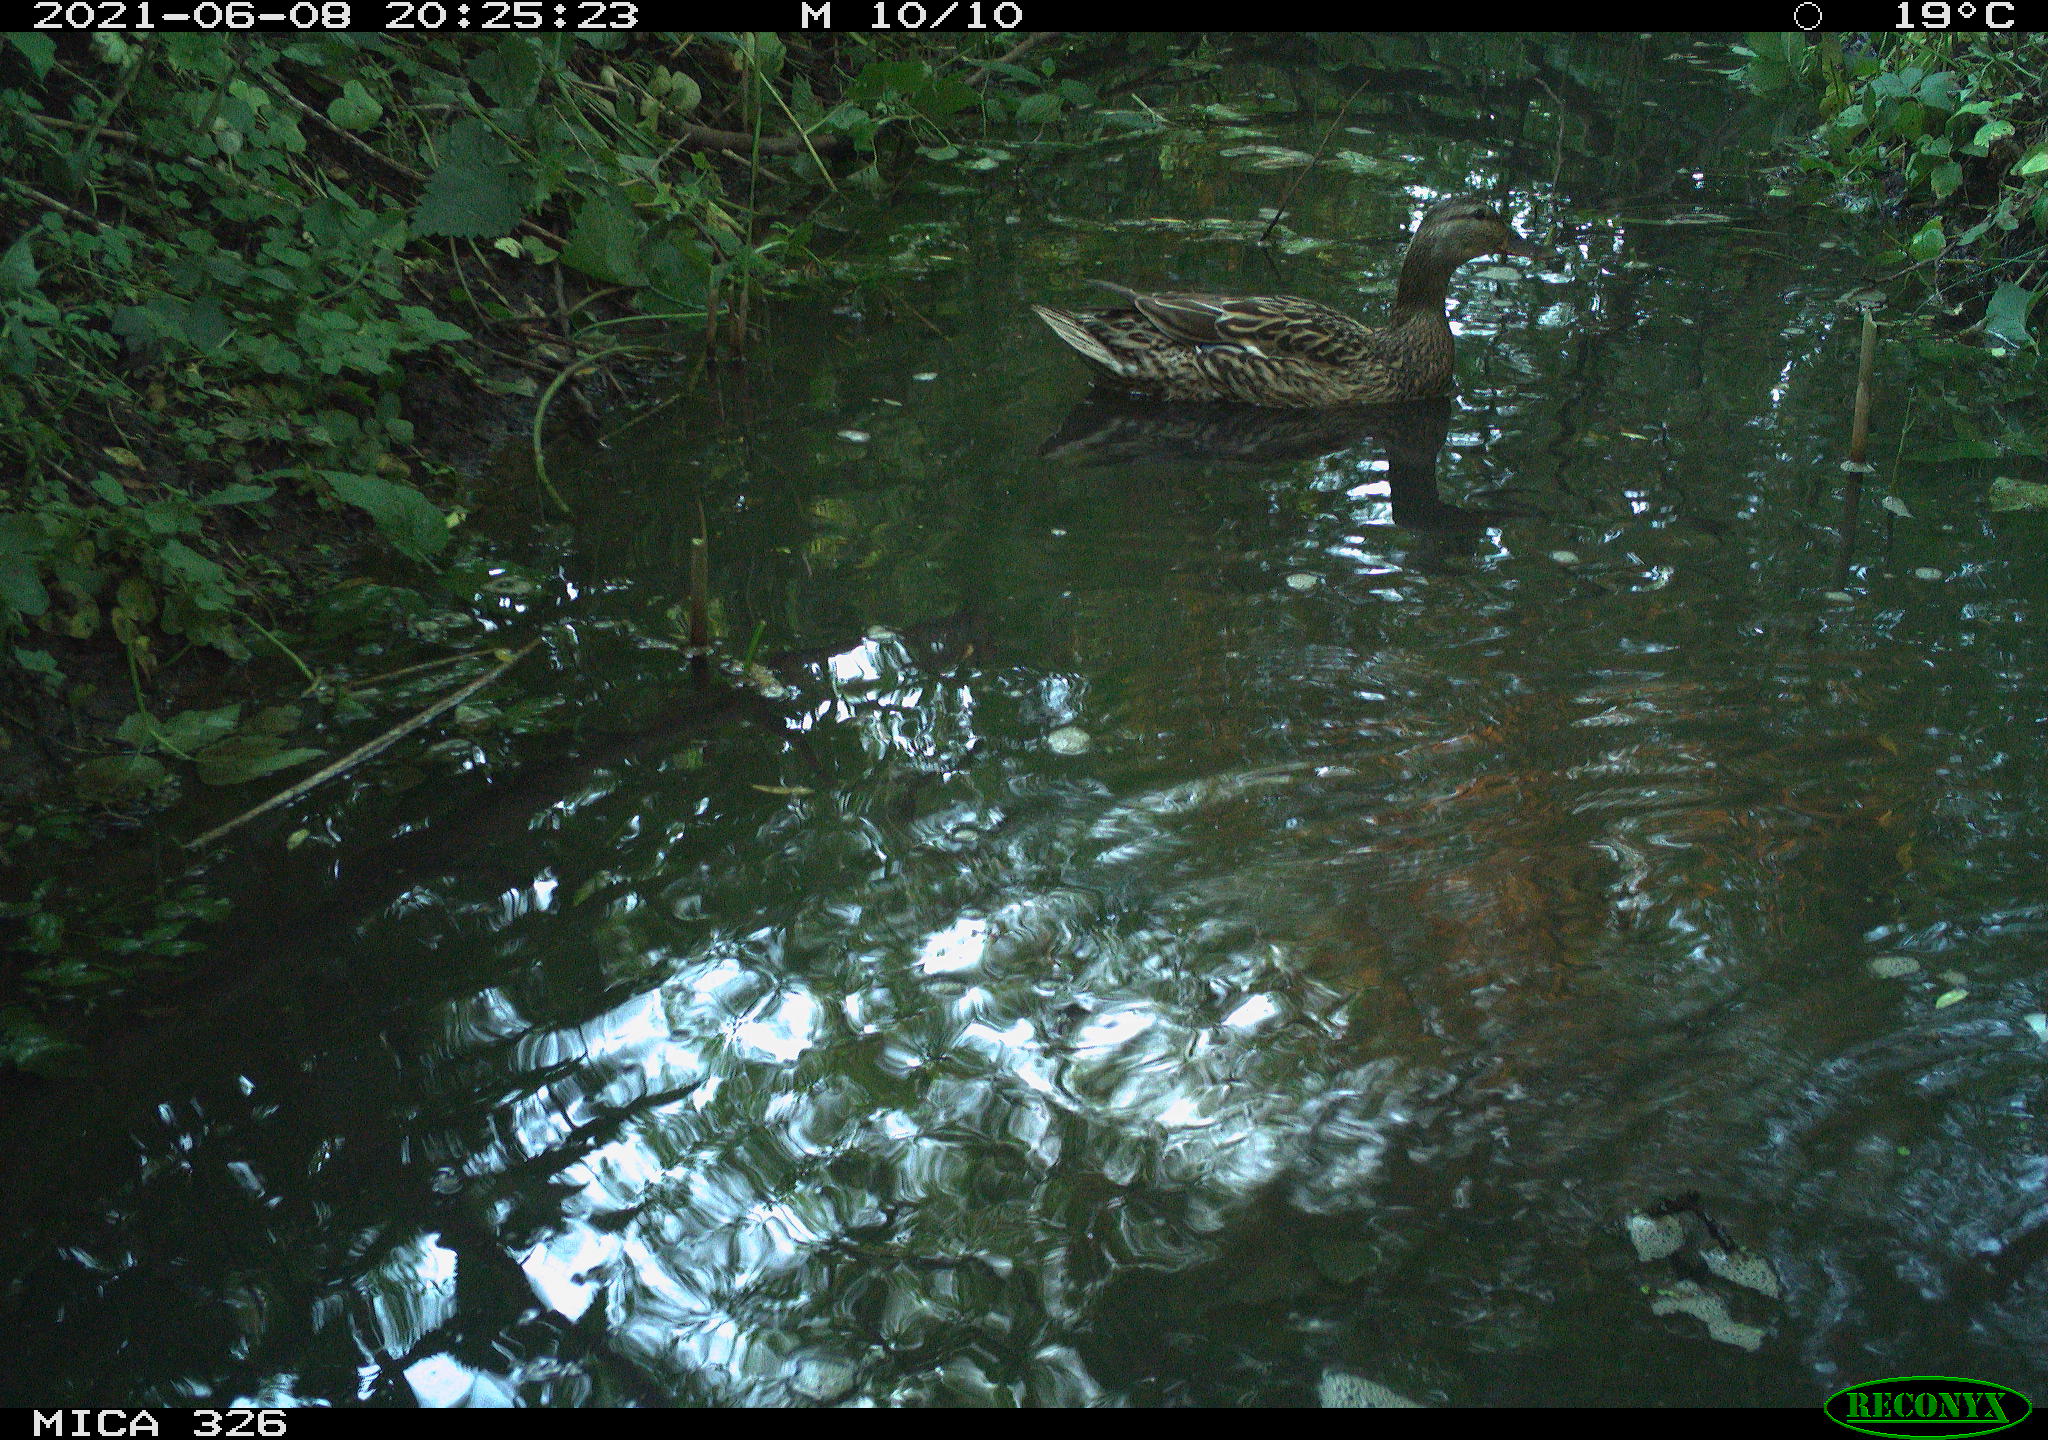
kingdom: Animalia
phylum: Chordata
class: Aves
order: Anseriformes
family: Anatidae
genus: Anas
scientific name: Anas platyrhynchos
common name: Mallard
